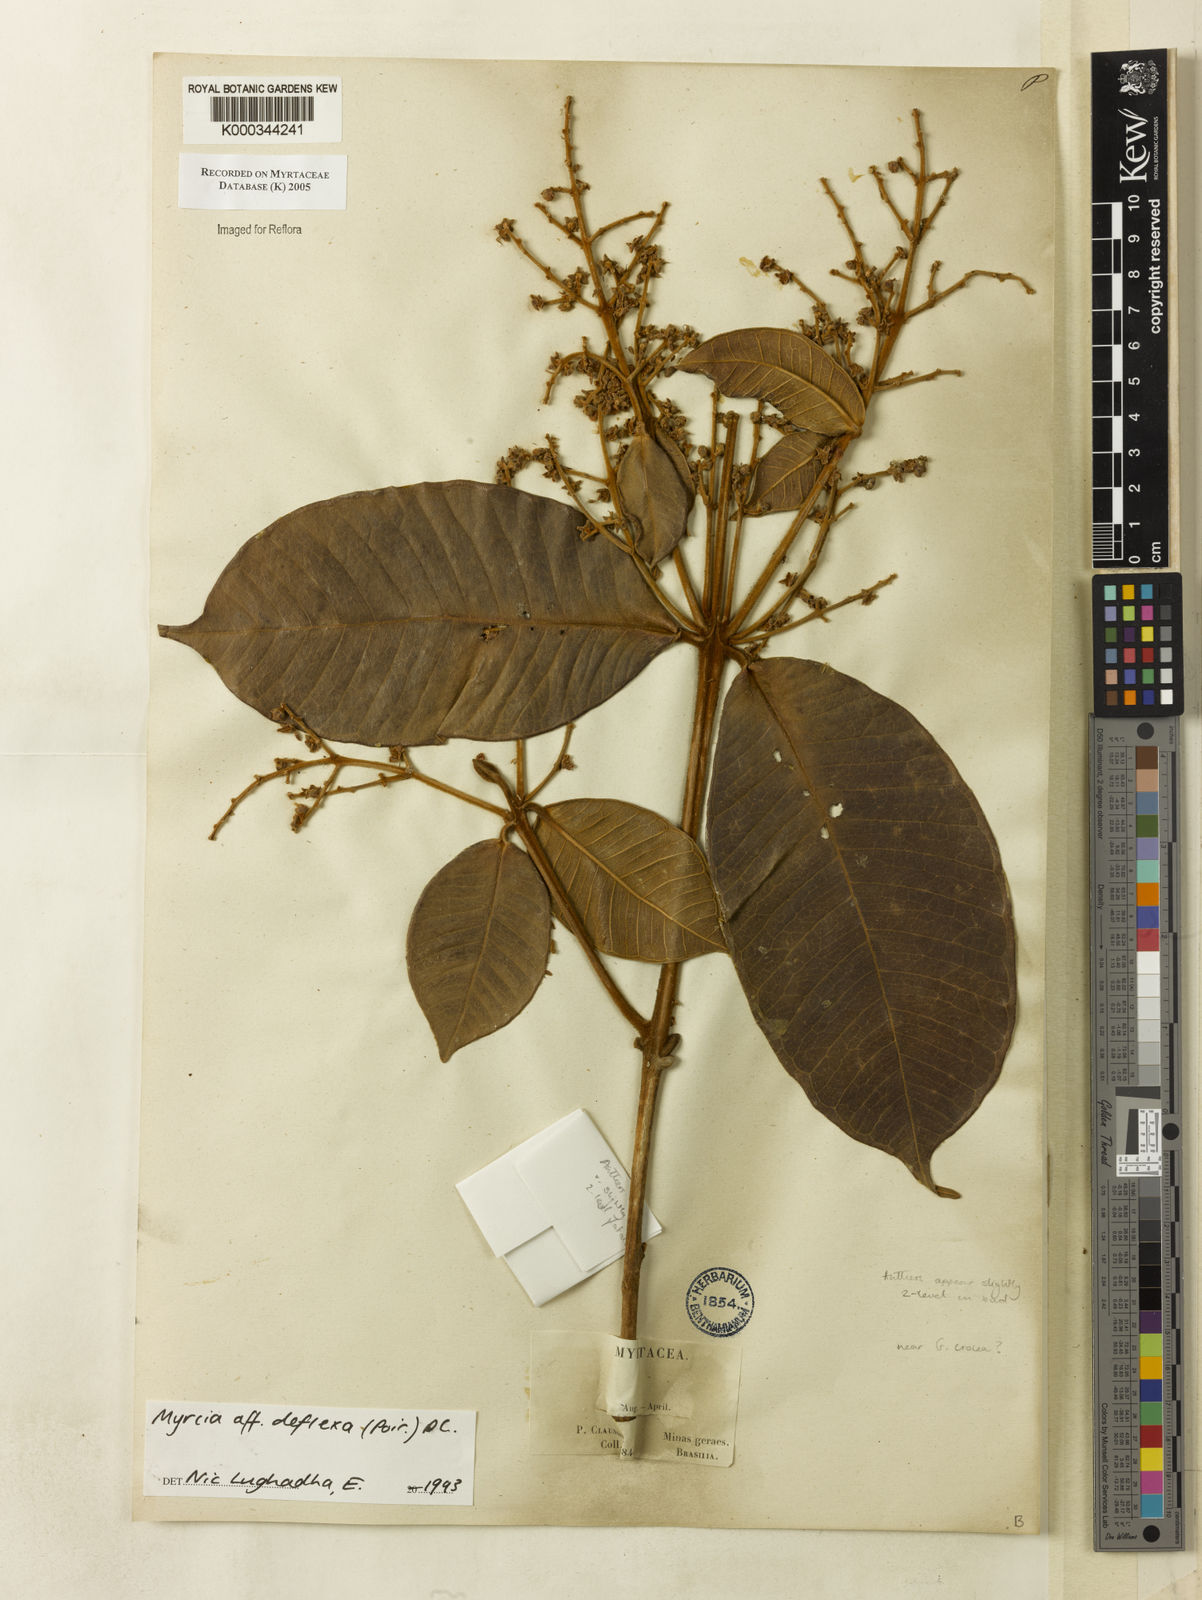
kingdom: Plantae
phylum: Tracheophyta
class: Magnoliopsida
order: Myrtales
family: Myrtaceae
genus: Myrcia
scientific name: Myrcia deflexa
